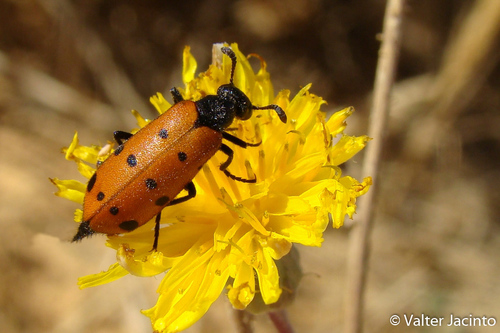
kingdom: Animalia
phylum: Arthropoda
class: Insecta
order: Coleoptera
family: Meloidae
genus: Hycleus
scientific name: Hycleus duodecimpunctatus
